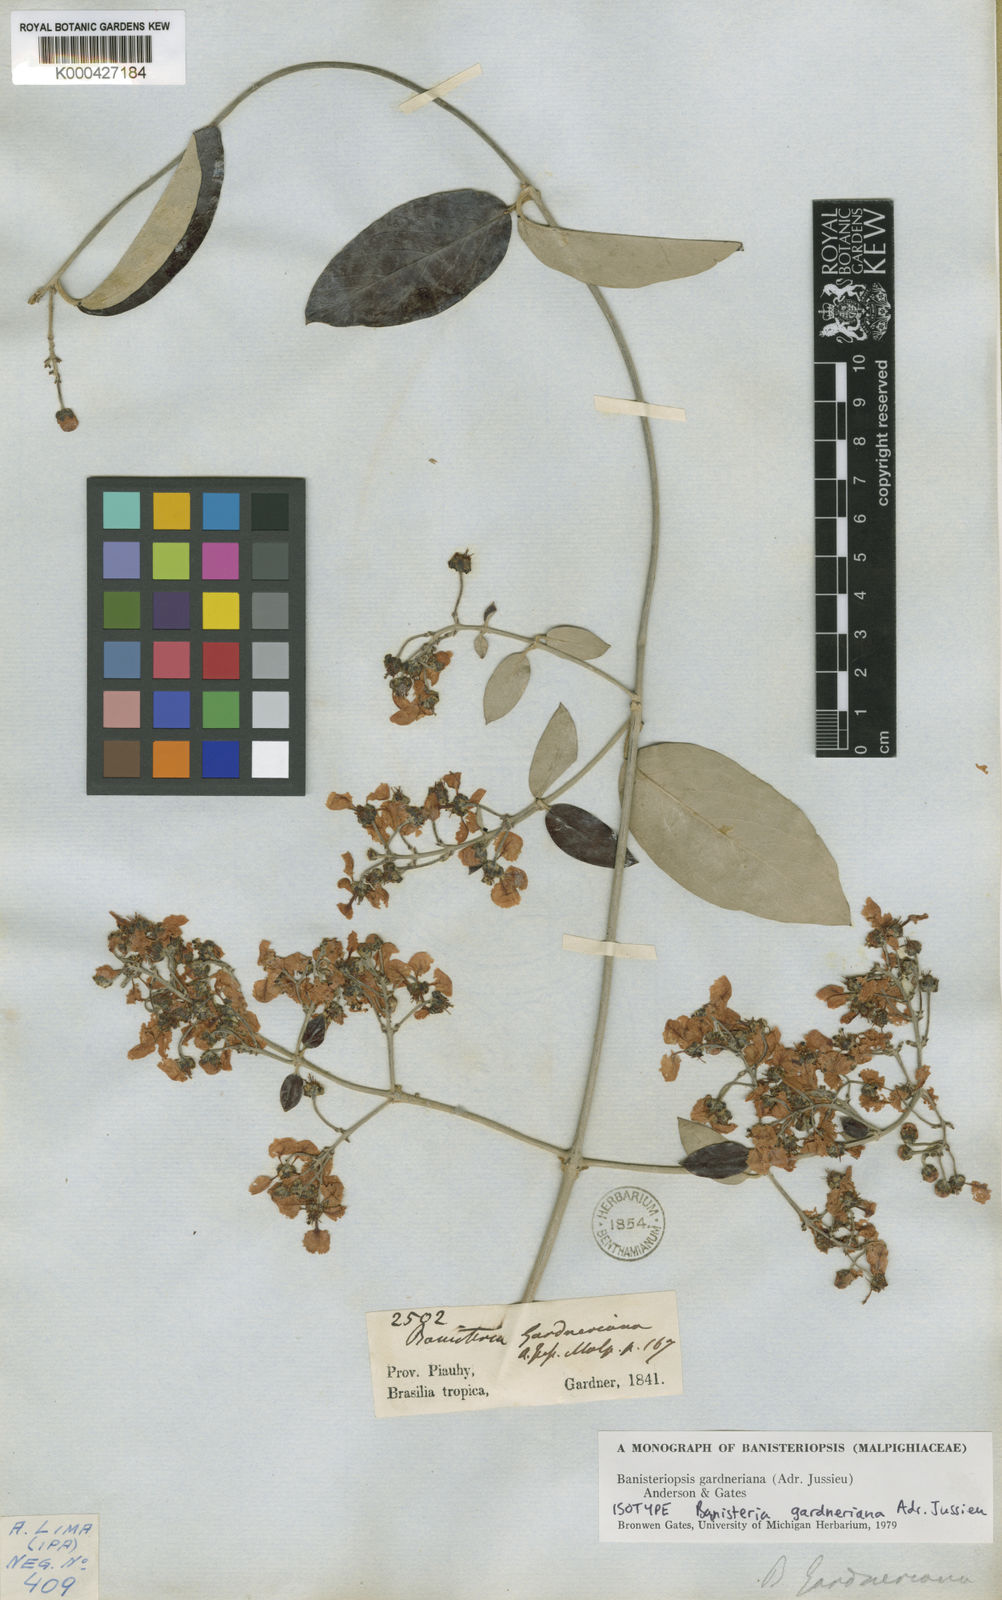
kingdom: Plantae
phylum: Tracheophyta
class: Magnoliopsida
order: Malpighiales
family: Malpighiaceae
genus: Banisteriopsis
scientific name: Banisteriopsis gardneriana
